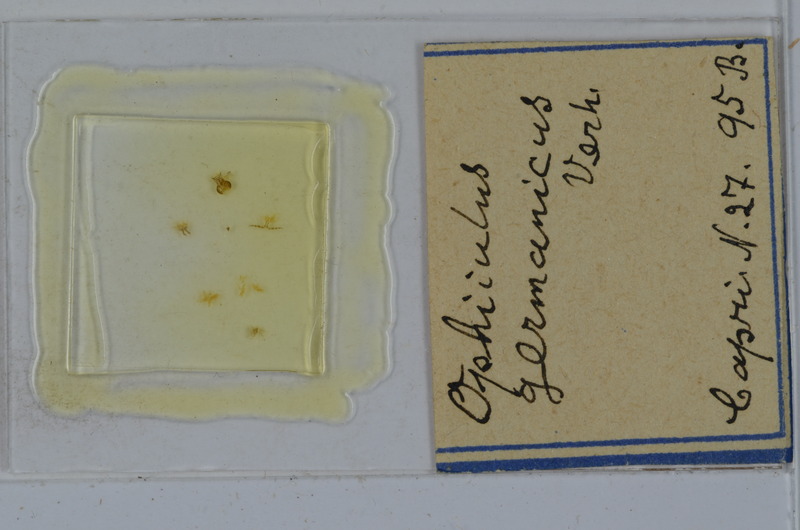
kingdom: Animalia
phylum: Arthropoda
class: Diplopoda
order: Julida
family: Julidae
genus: Ophyiulus
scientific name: Ophyiulus germanicus
